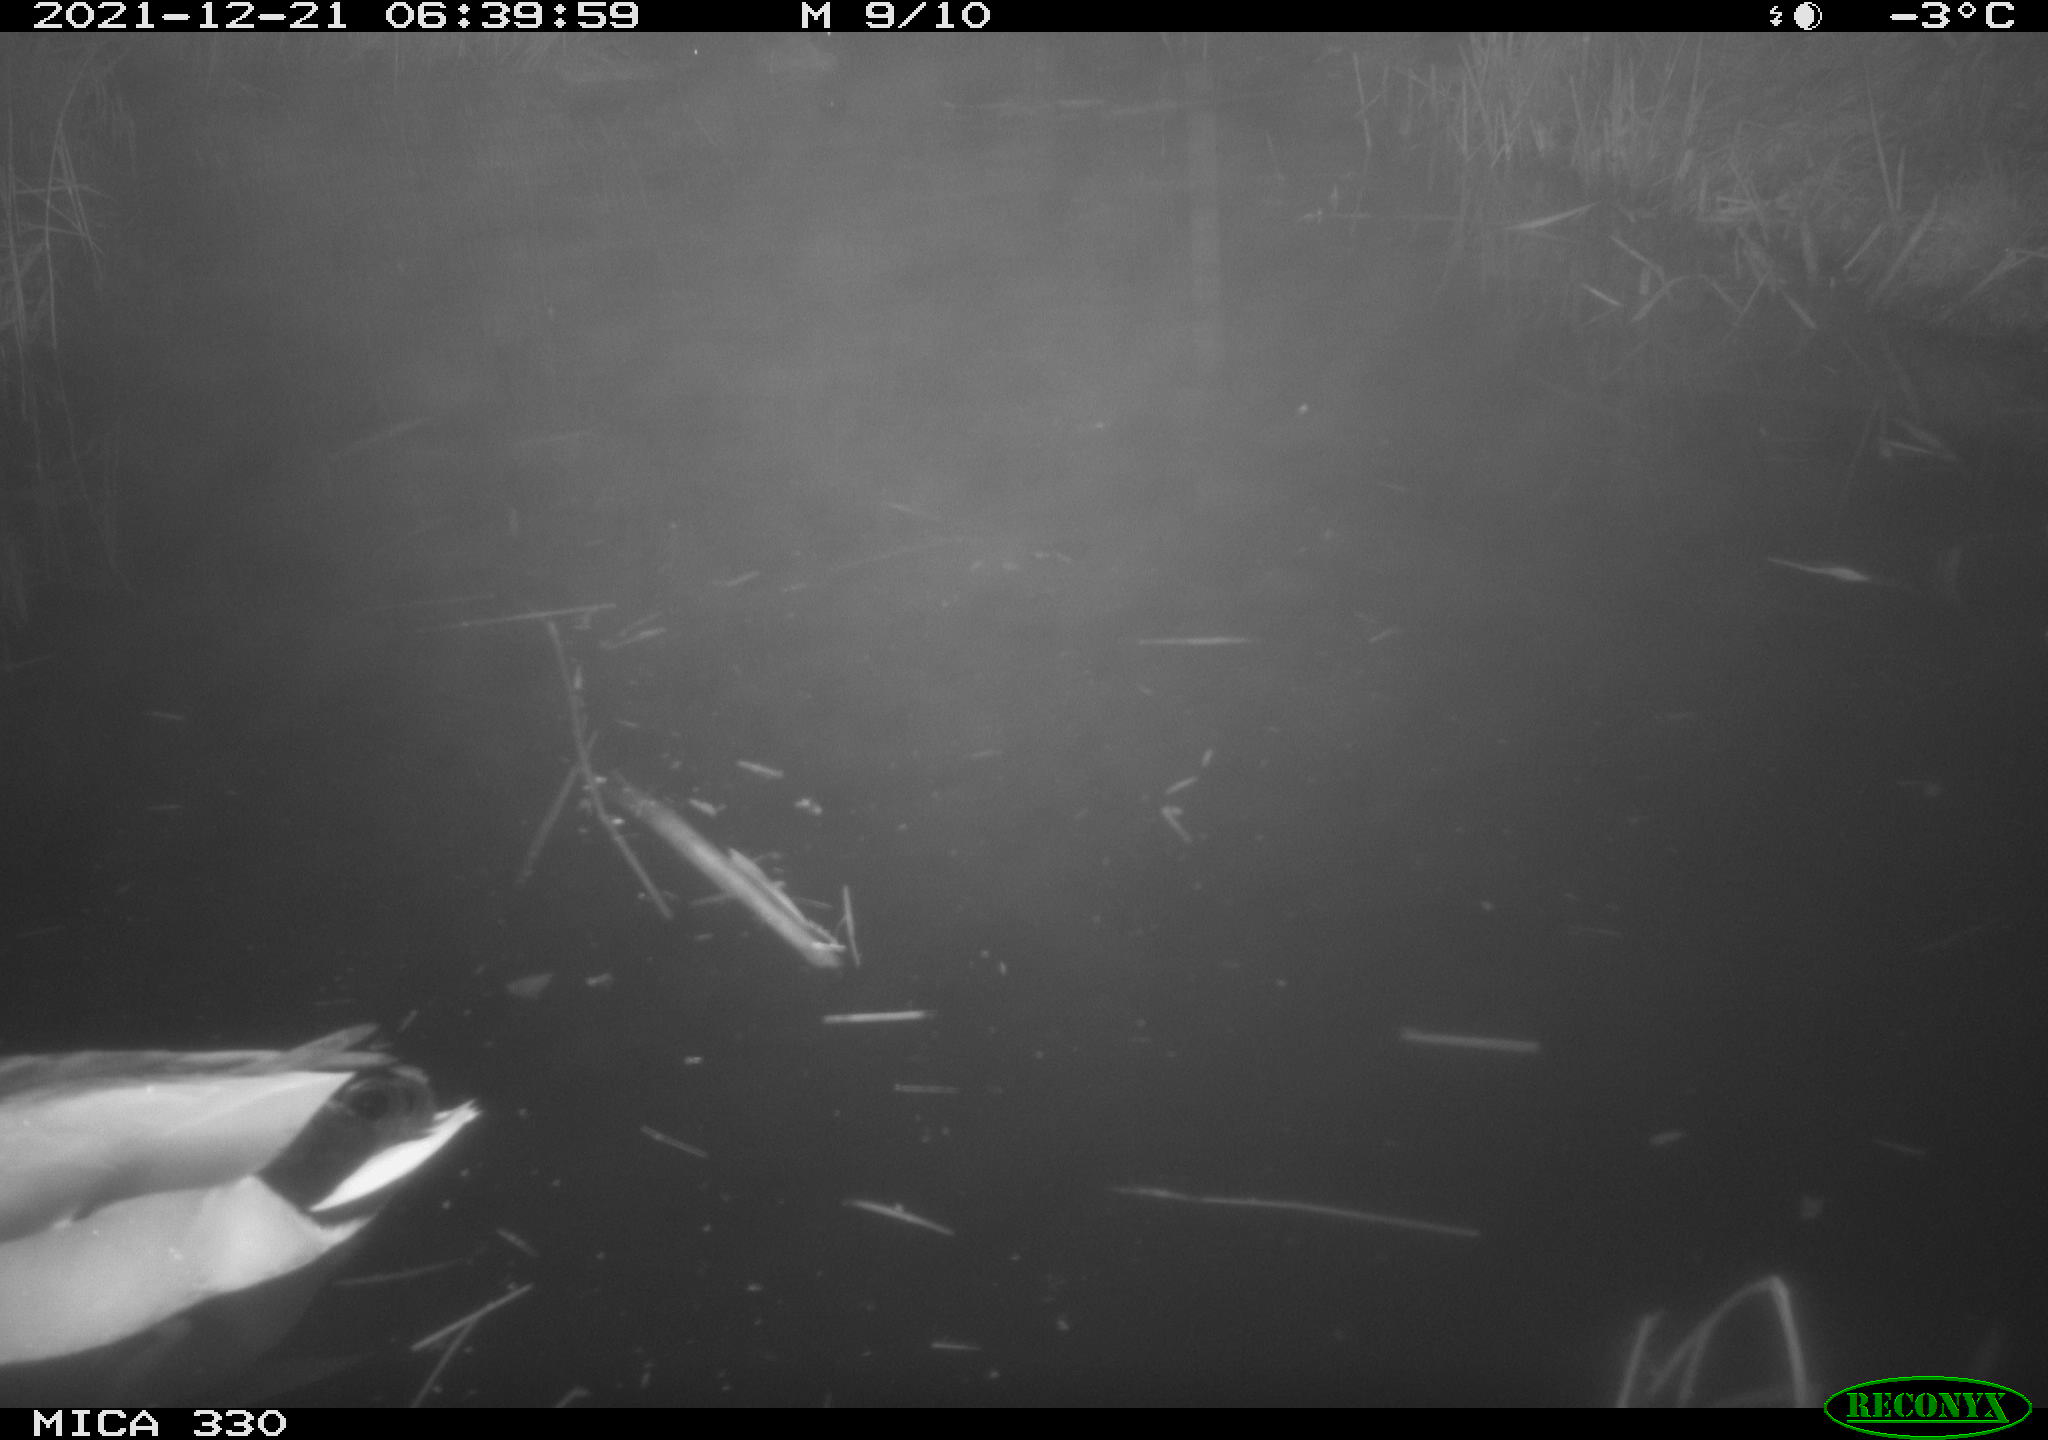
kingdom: Animalia
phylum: Chordata
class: Aves
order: Anseriformes
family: Anatidae
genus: Anas
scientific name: Anas platyrhynchos
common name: Mallard
